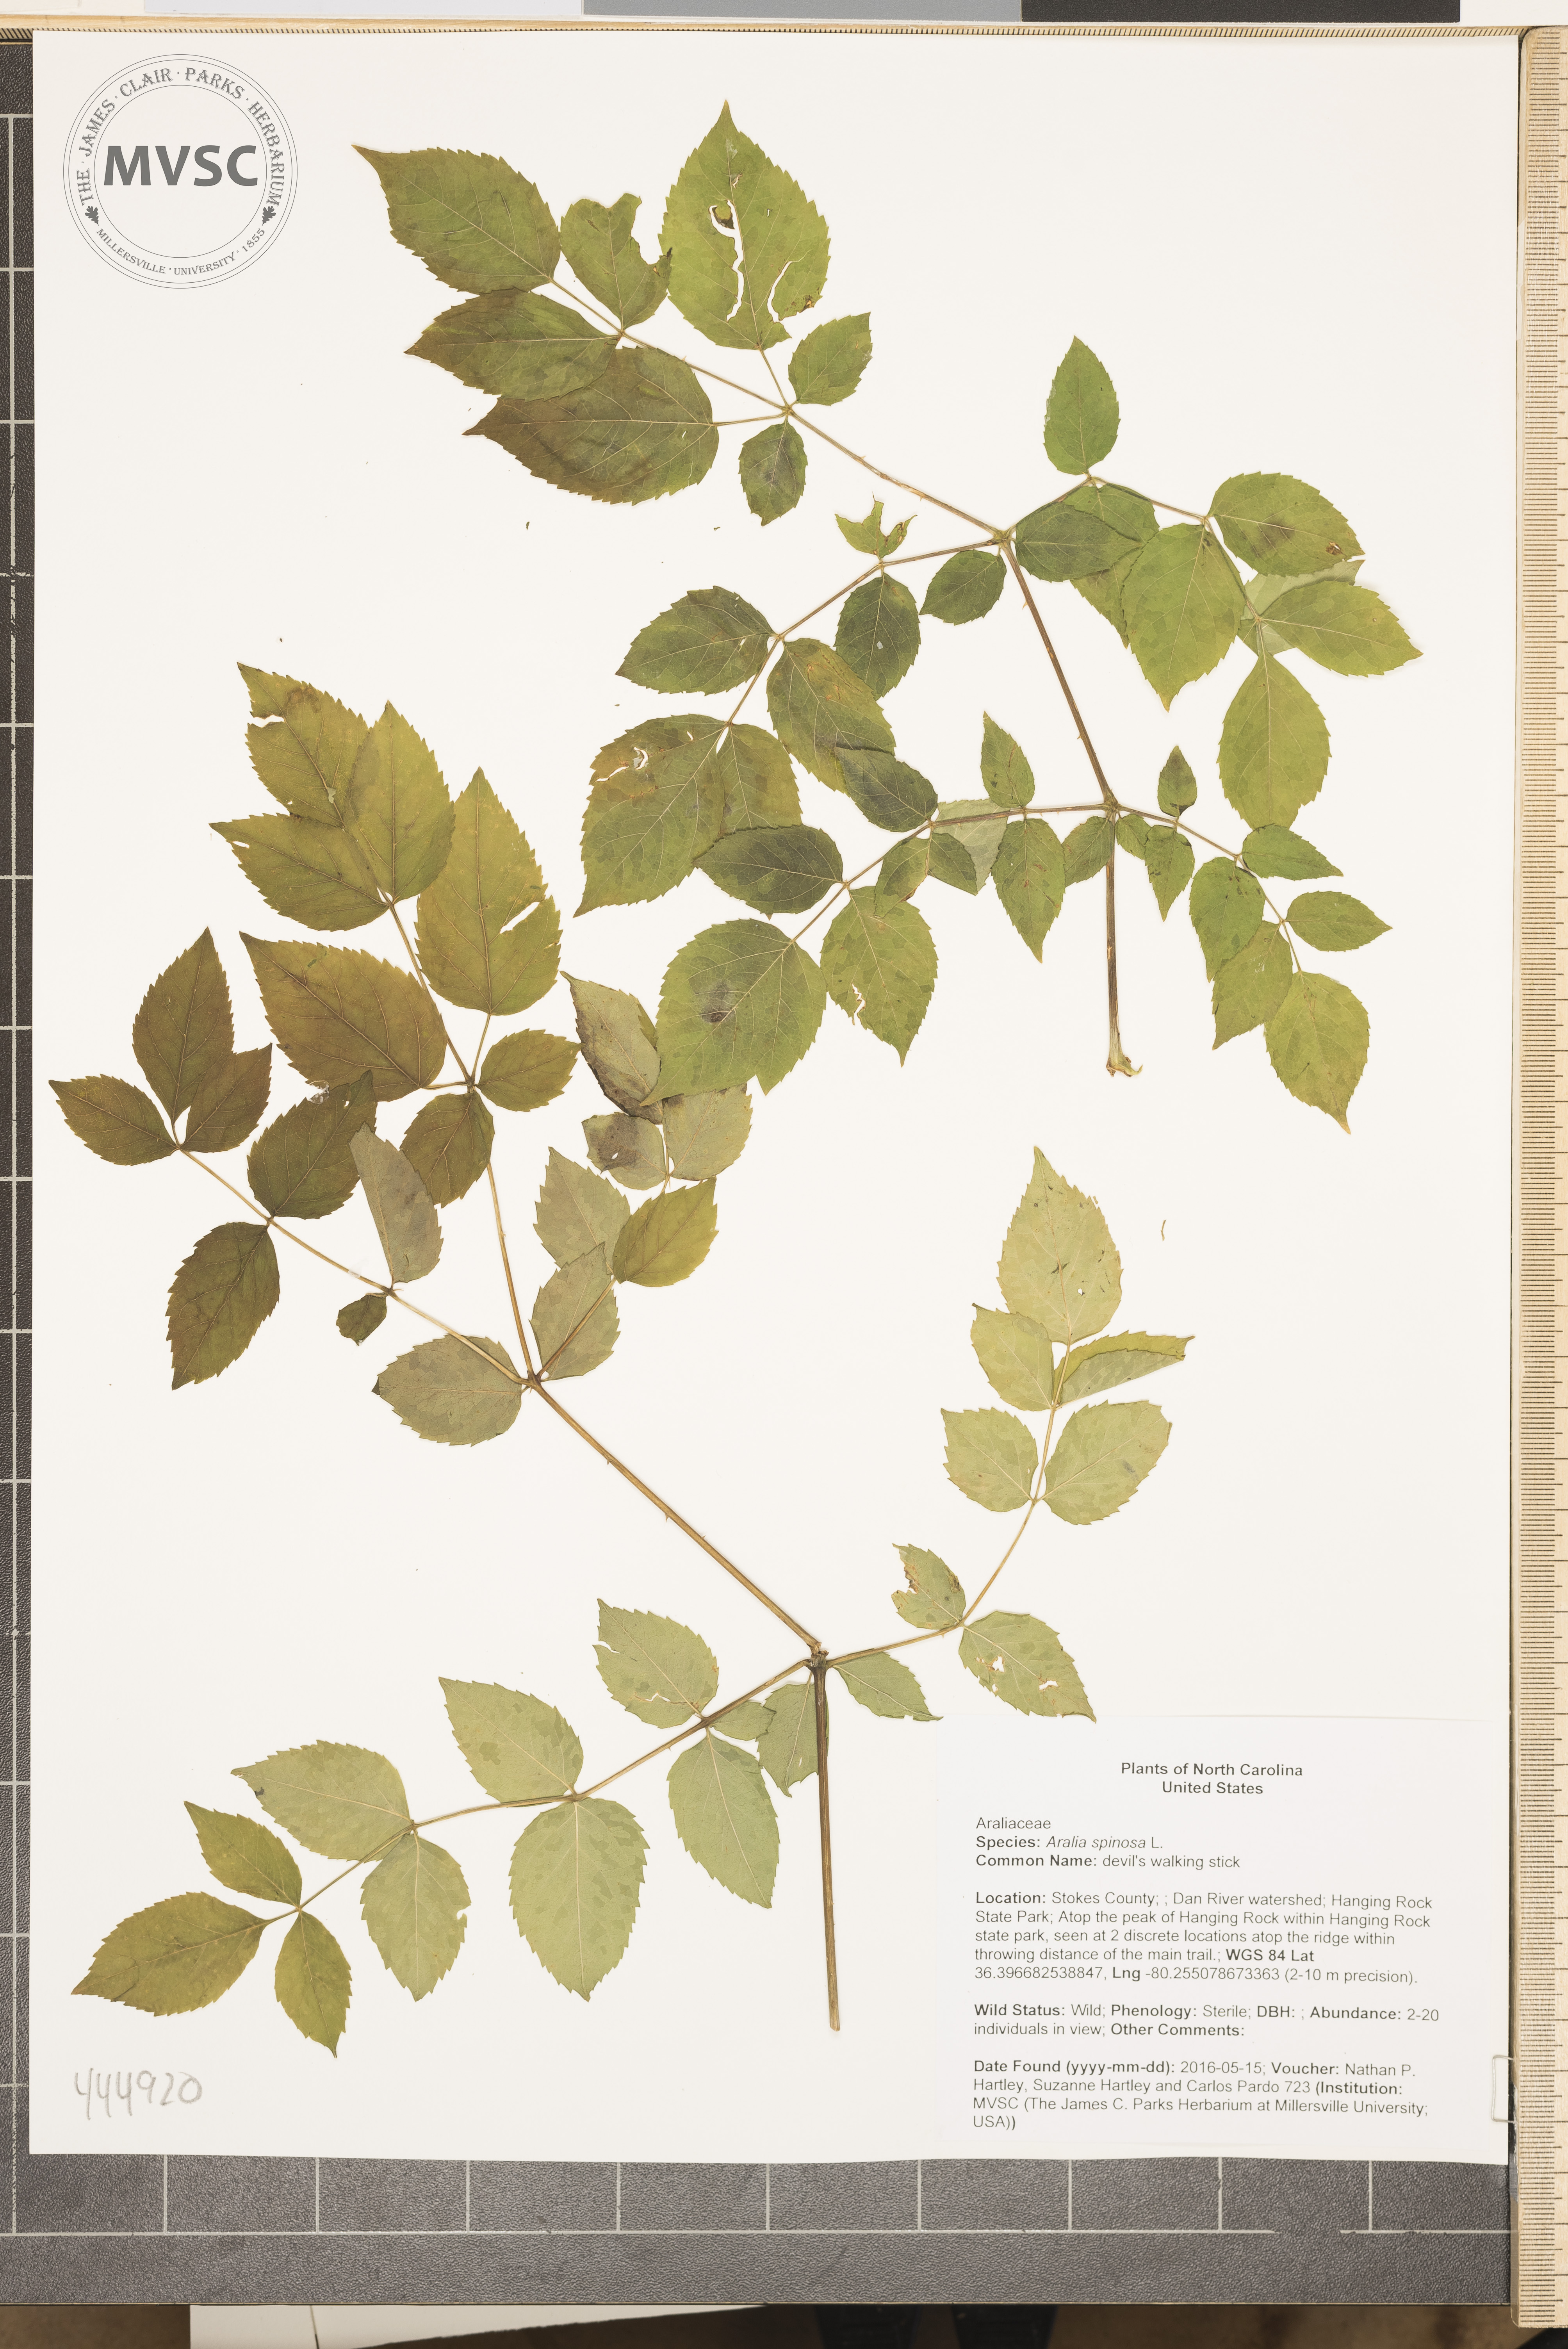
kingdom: Plantae
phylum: Tracheophyta
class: Magnoliopsida
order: Apiales
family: Araliaceae
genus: Aralia
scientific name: Aralia spinosa
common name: devil's walking stick
